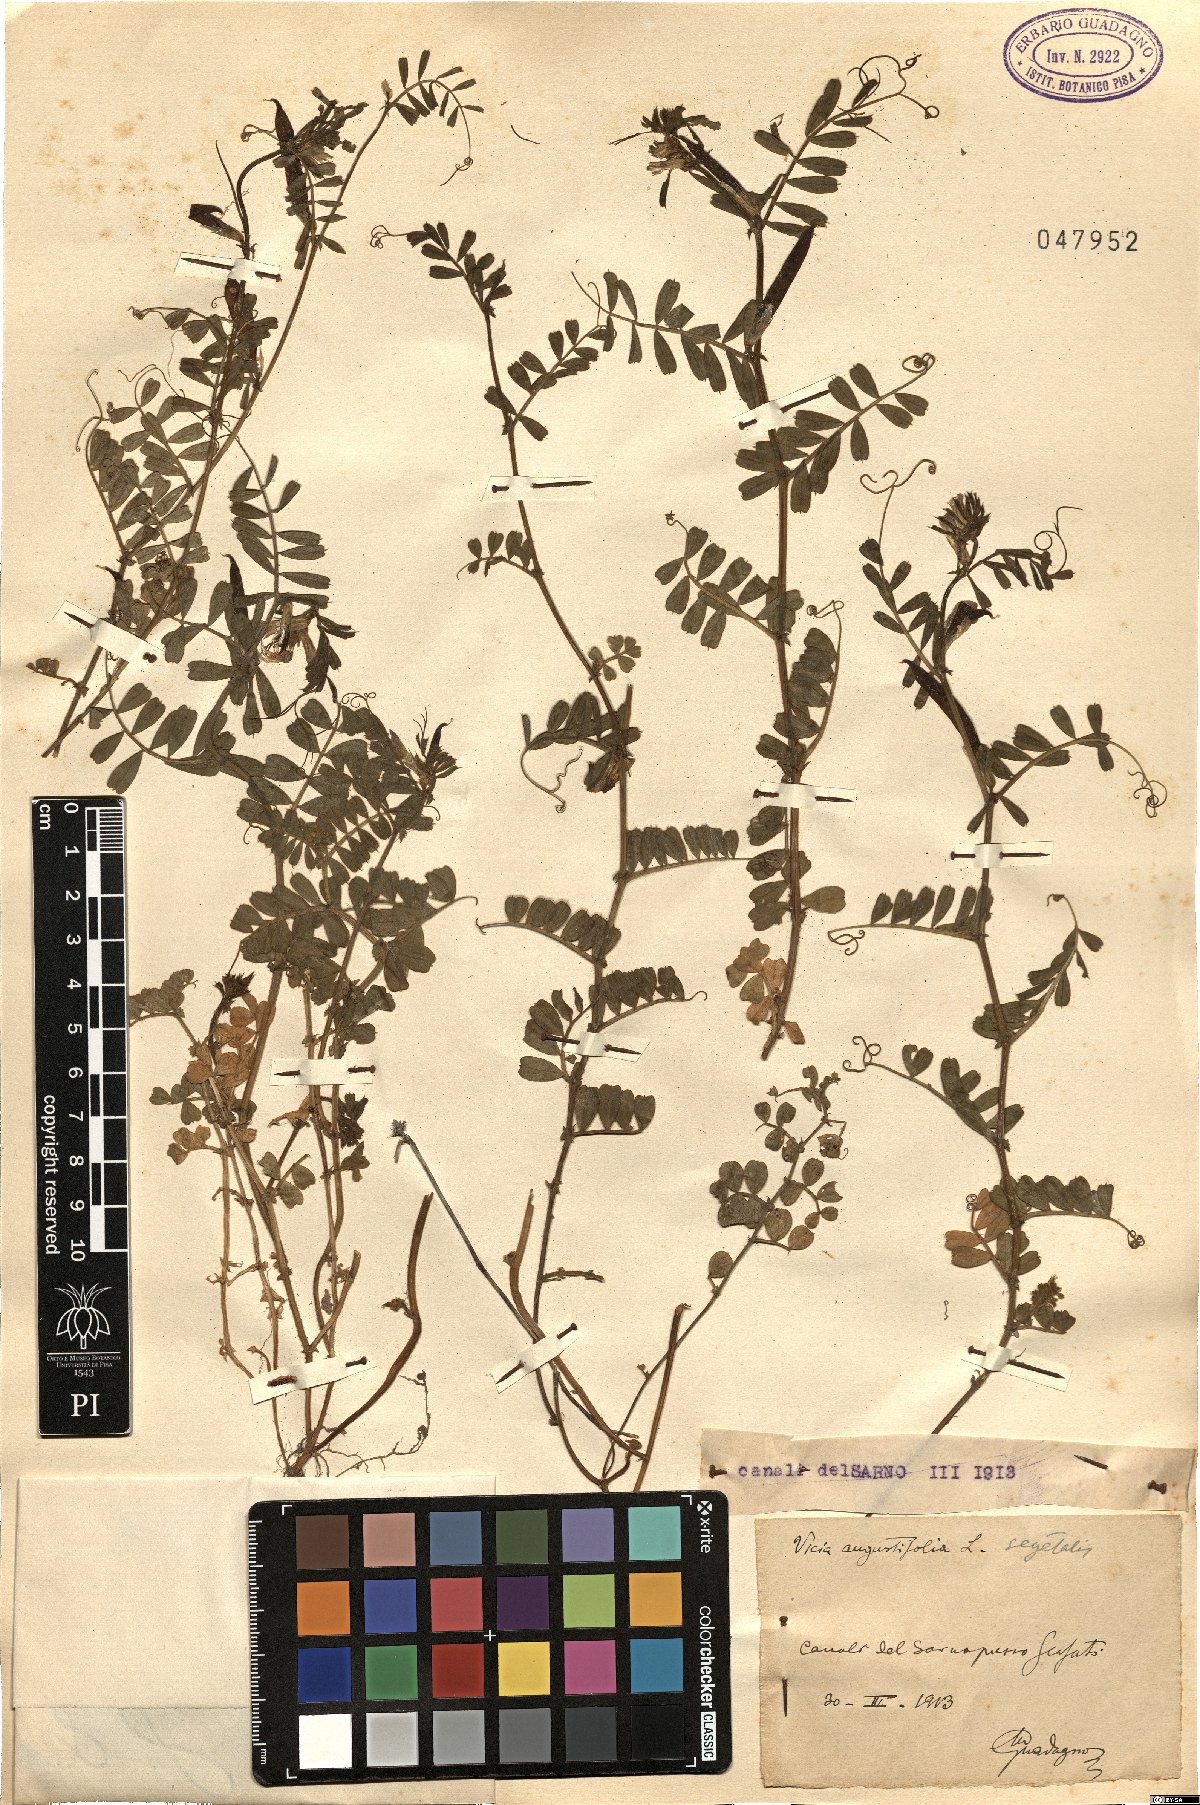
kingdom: Plantae
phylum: Tracheophyta
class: Magnoliopsida
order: Fabales
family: Fabaceae
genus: Vicia
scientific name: Vicia sativa
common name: Garden vetch
